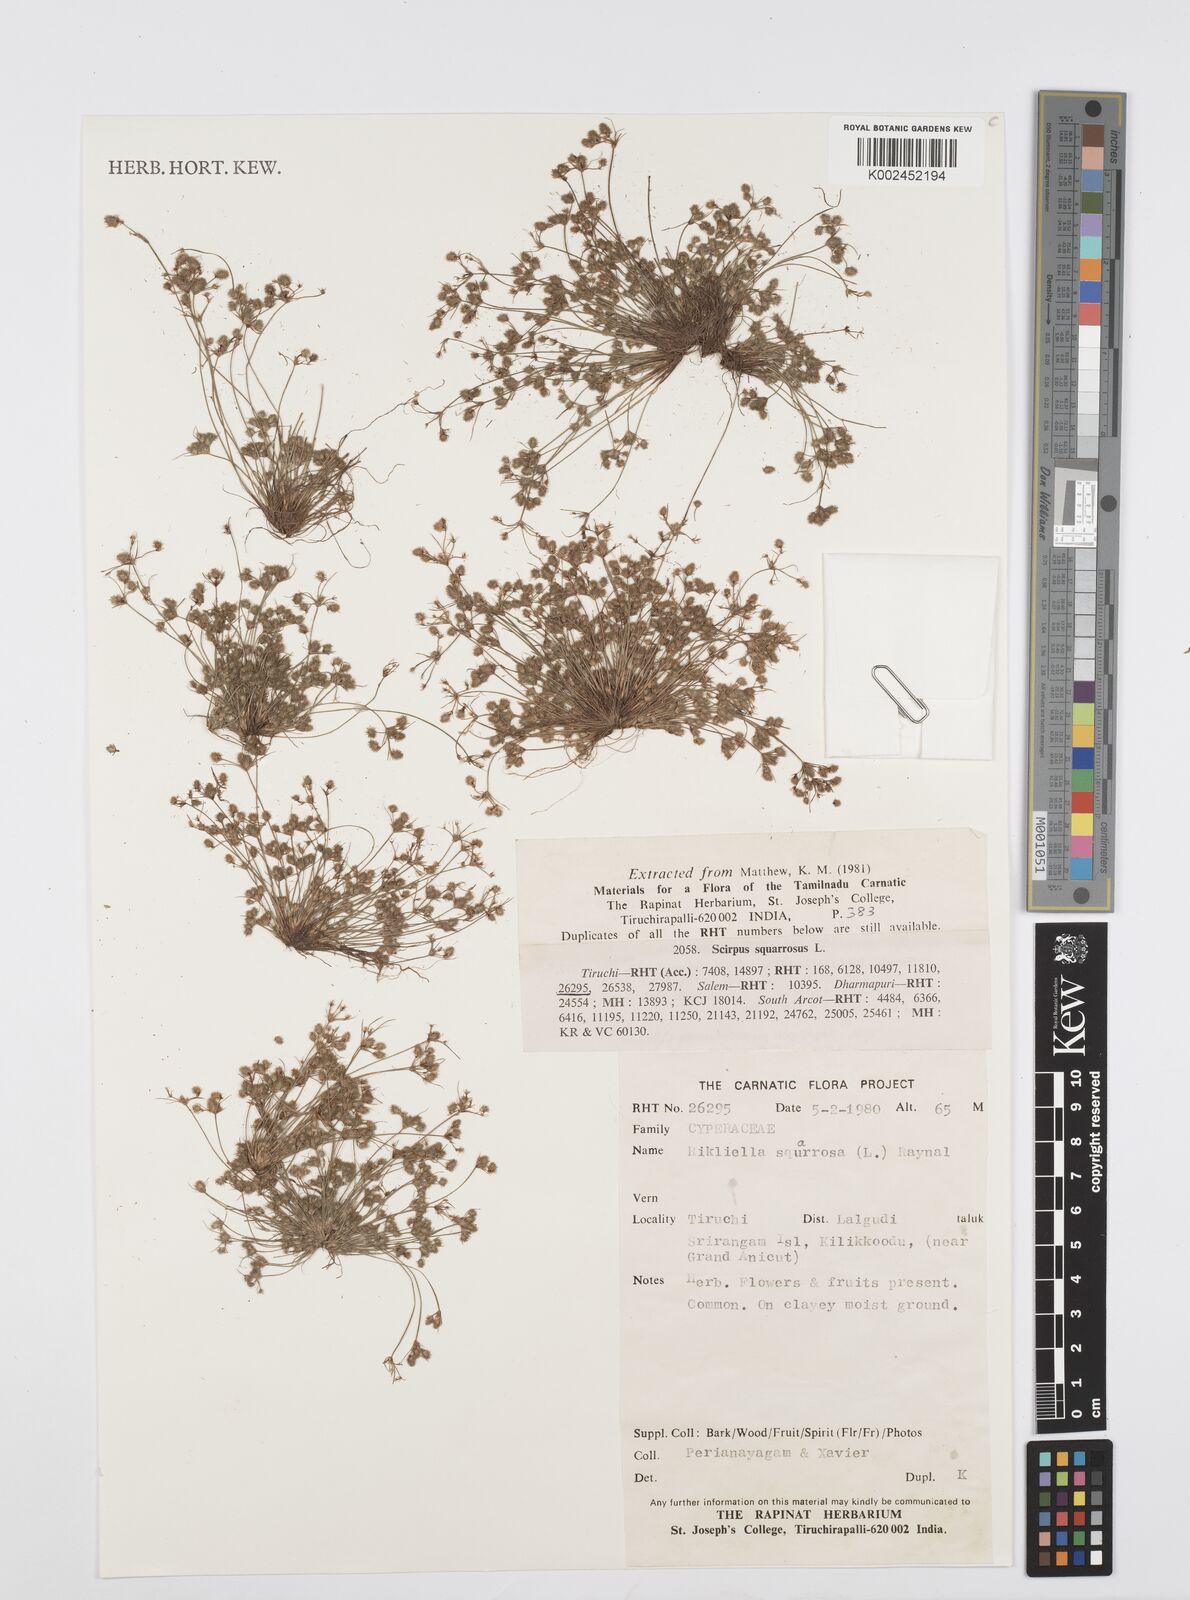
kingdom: Plantae
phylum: Tracheophyta
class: Liliopsida
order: Poales
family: Cyperaceae
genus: Cyperus
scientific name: Cyperus squarrosus
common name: Awned cyperus
